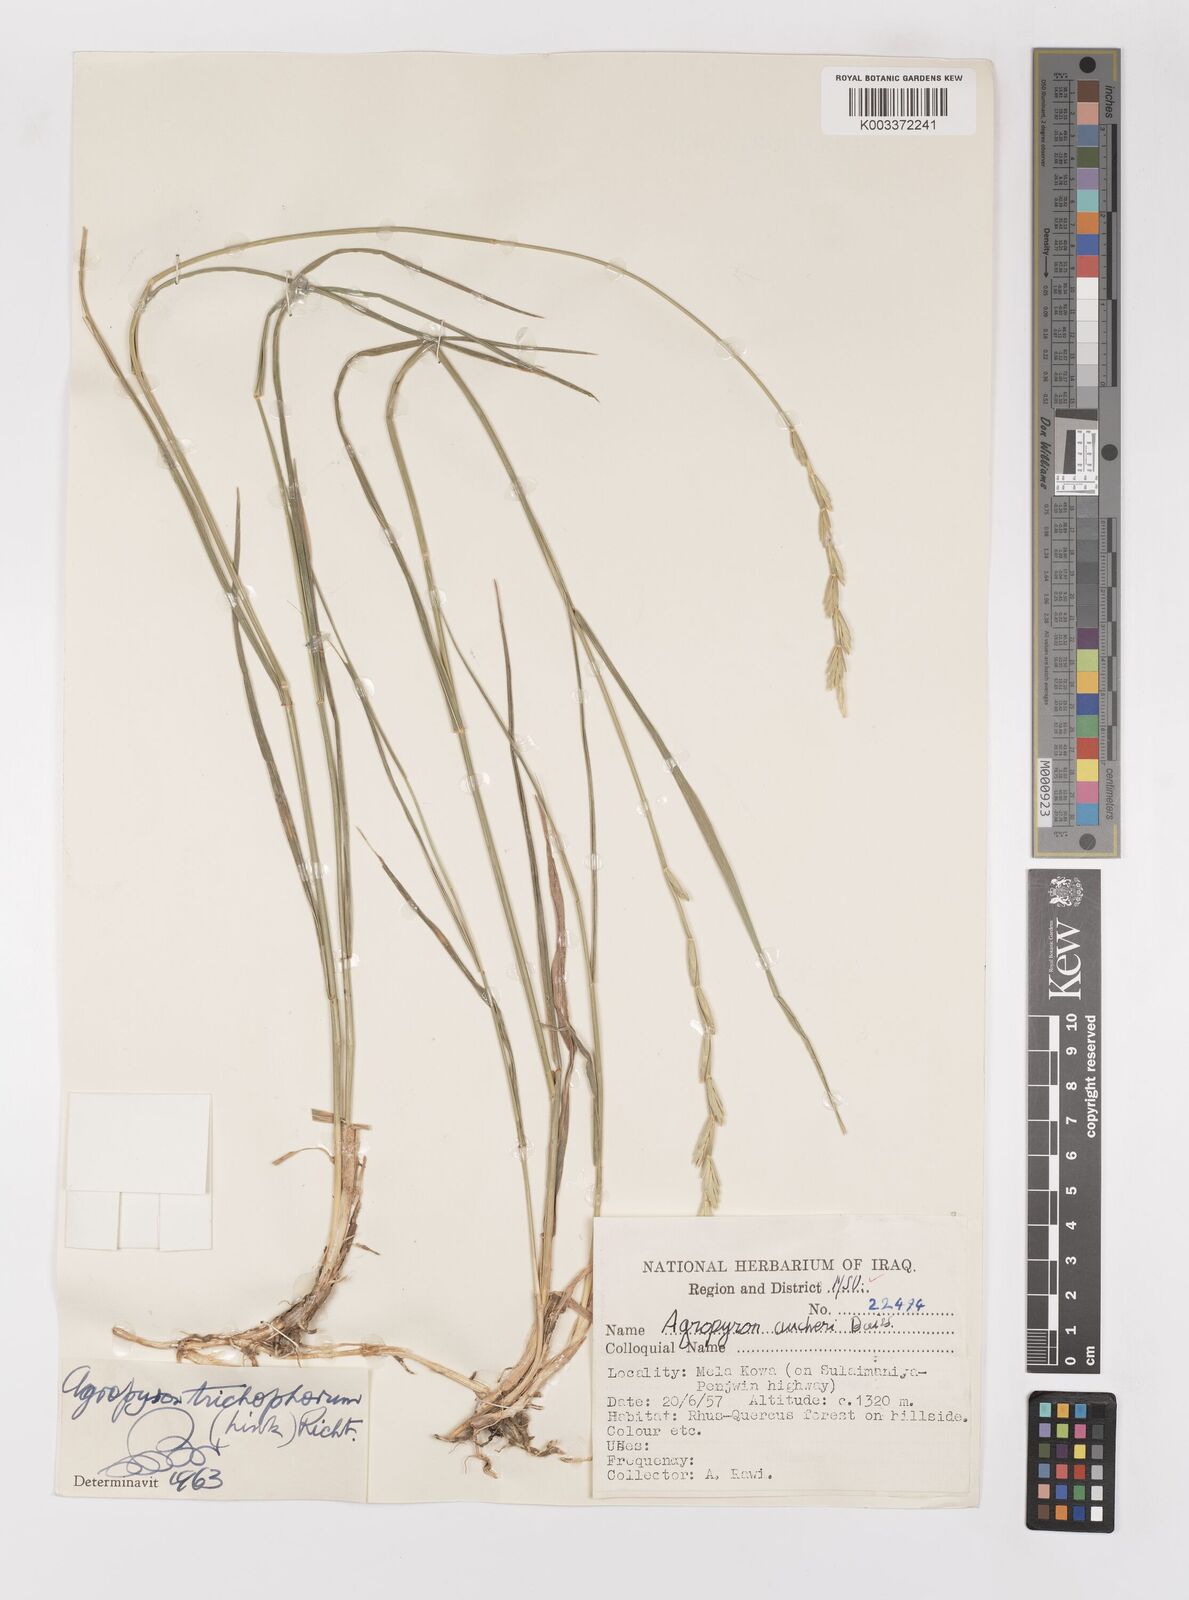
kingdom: Plantae
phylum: Tracheophyta
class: Liliopsida
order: Poales
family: Poaceae
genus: Thinopyrum
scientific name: Thinopyrum intermedium
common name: Intermediate wheatgrass
